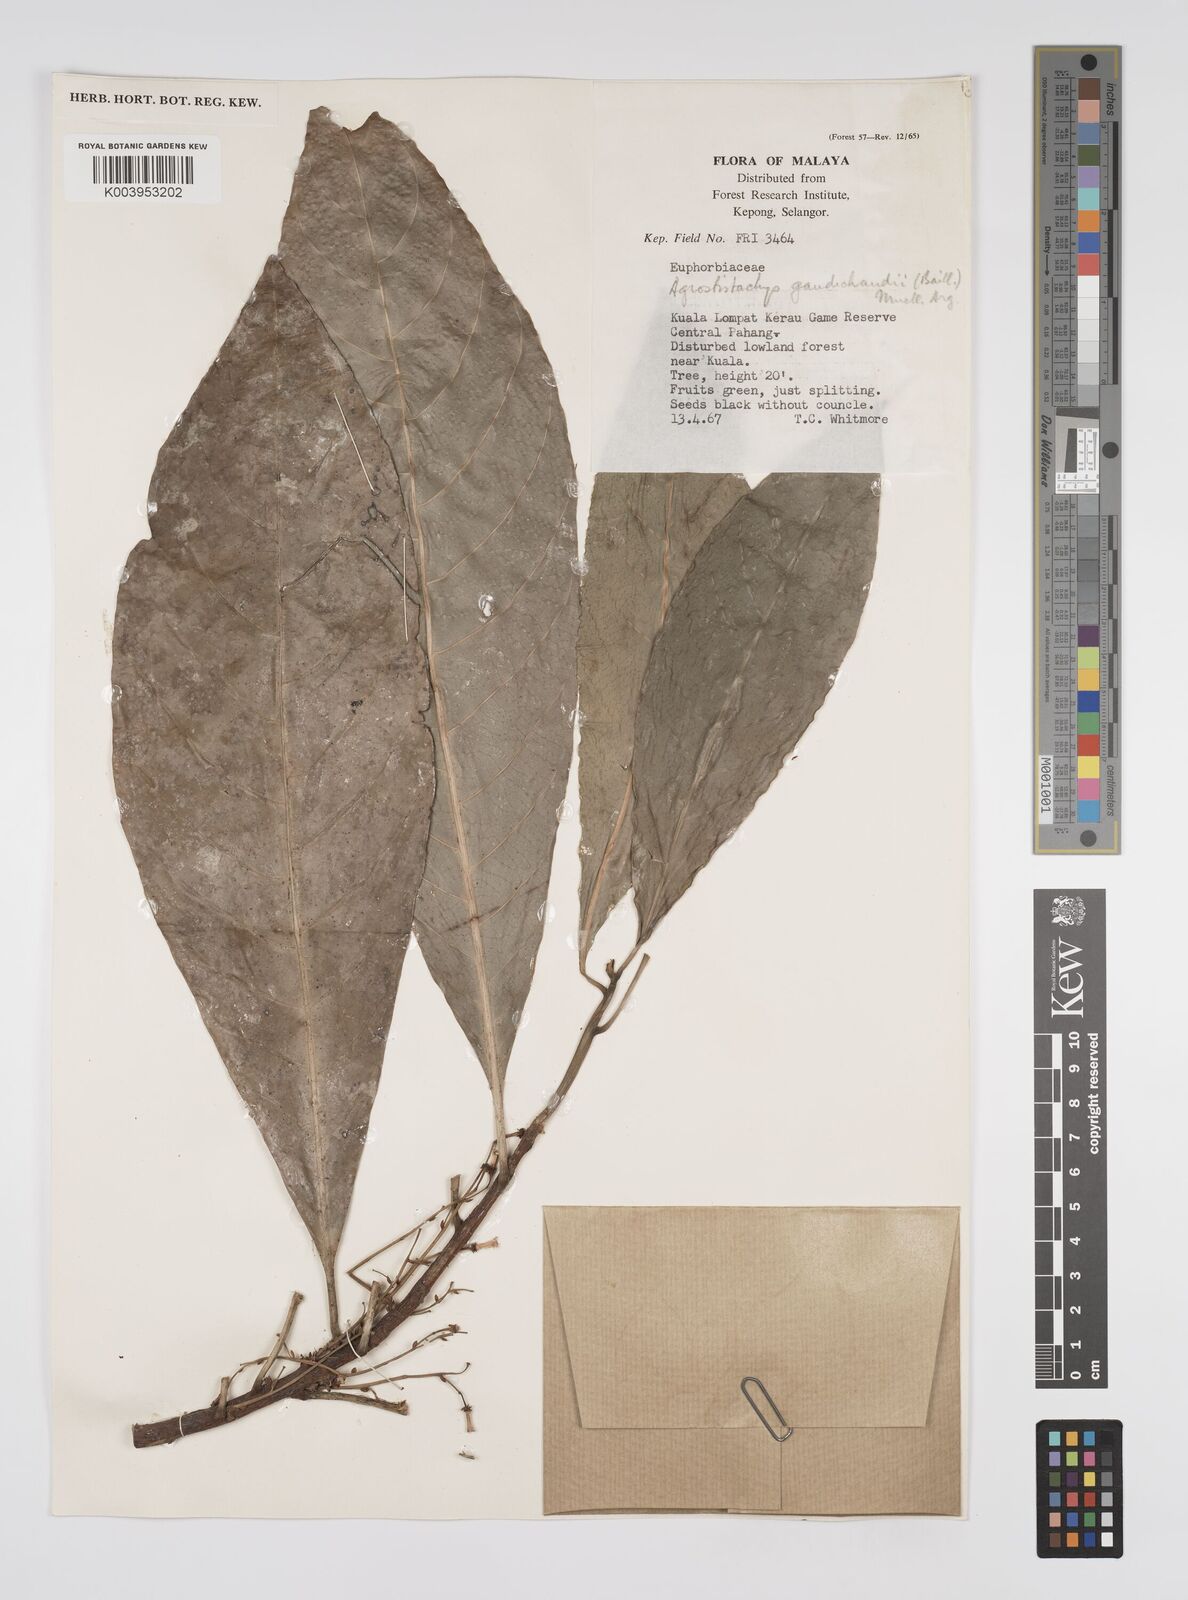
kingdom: Plantae
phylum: Tracheophyta
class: Magnoliopsida
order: Malpighiales
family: Euphorbiaceae
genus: Agrostistachys
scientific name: Agrostistachys gaudichaudii
